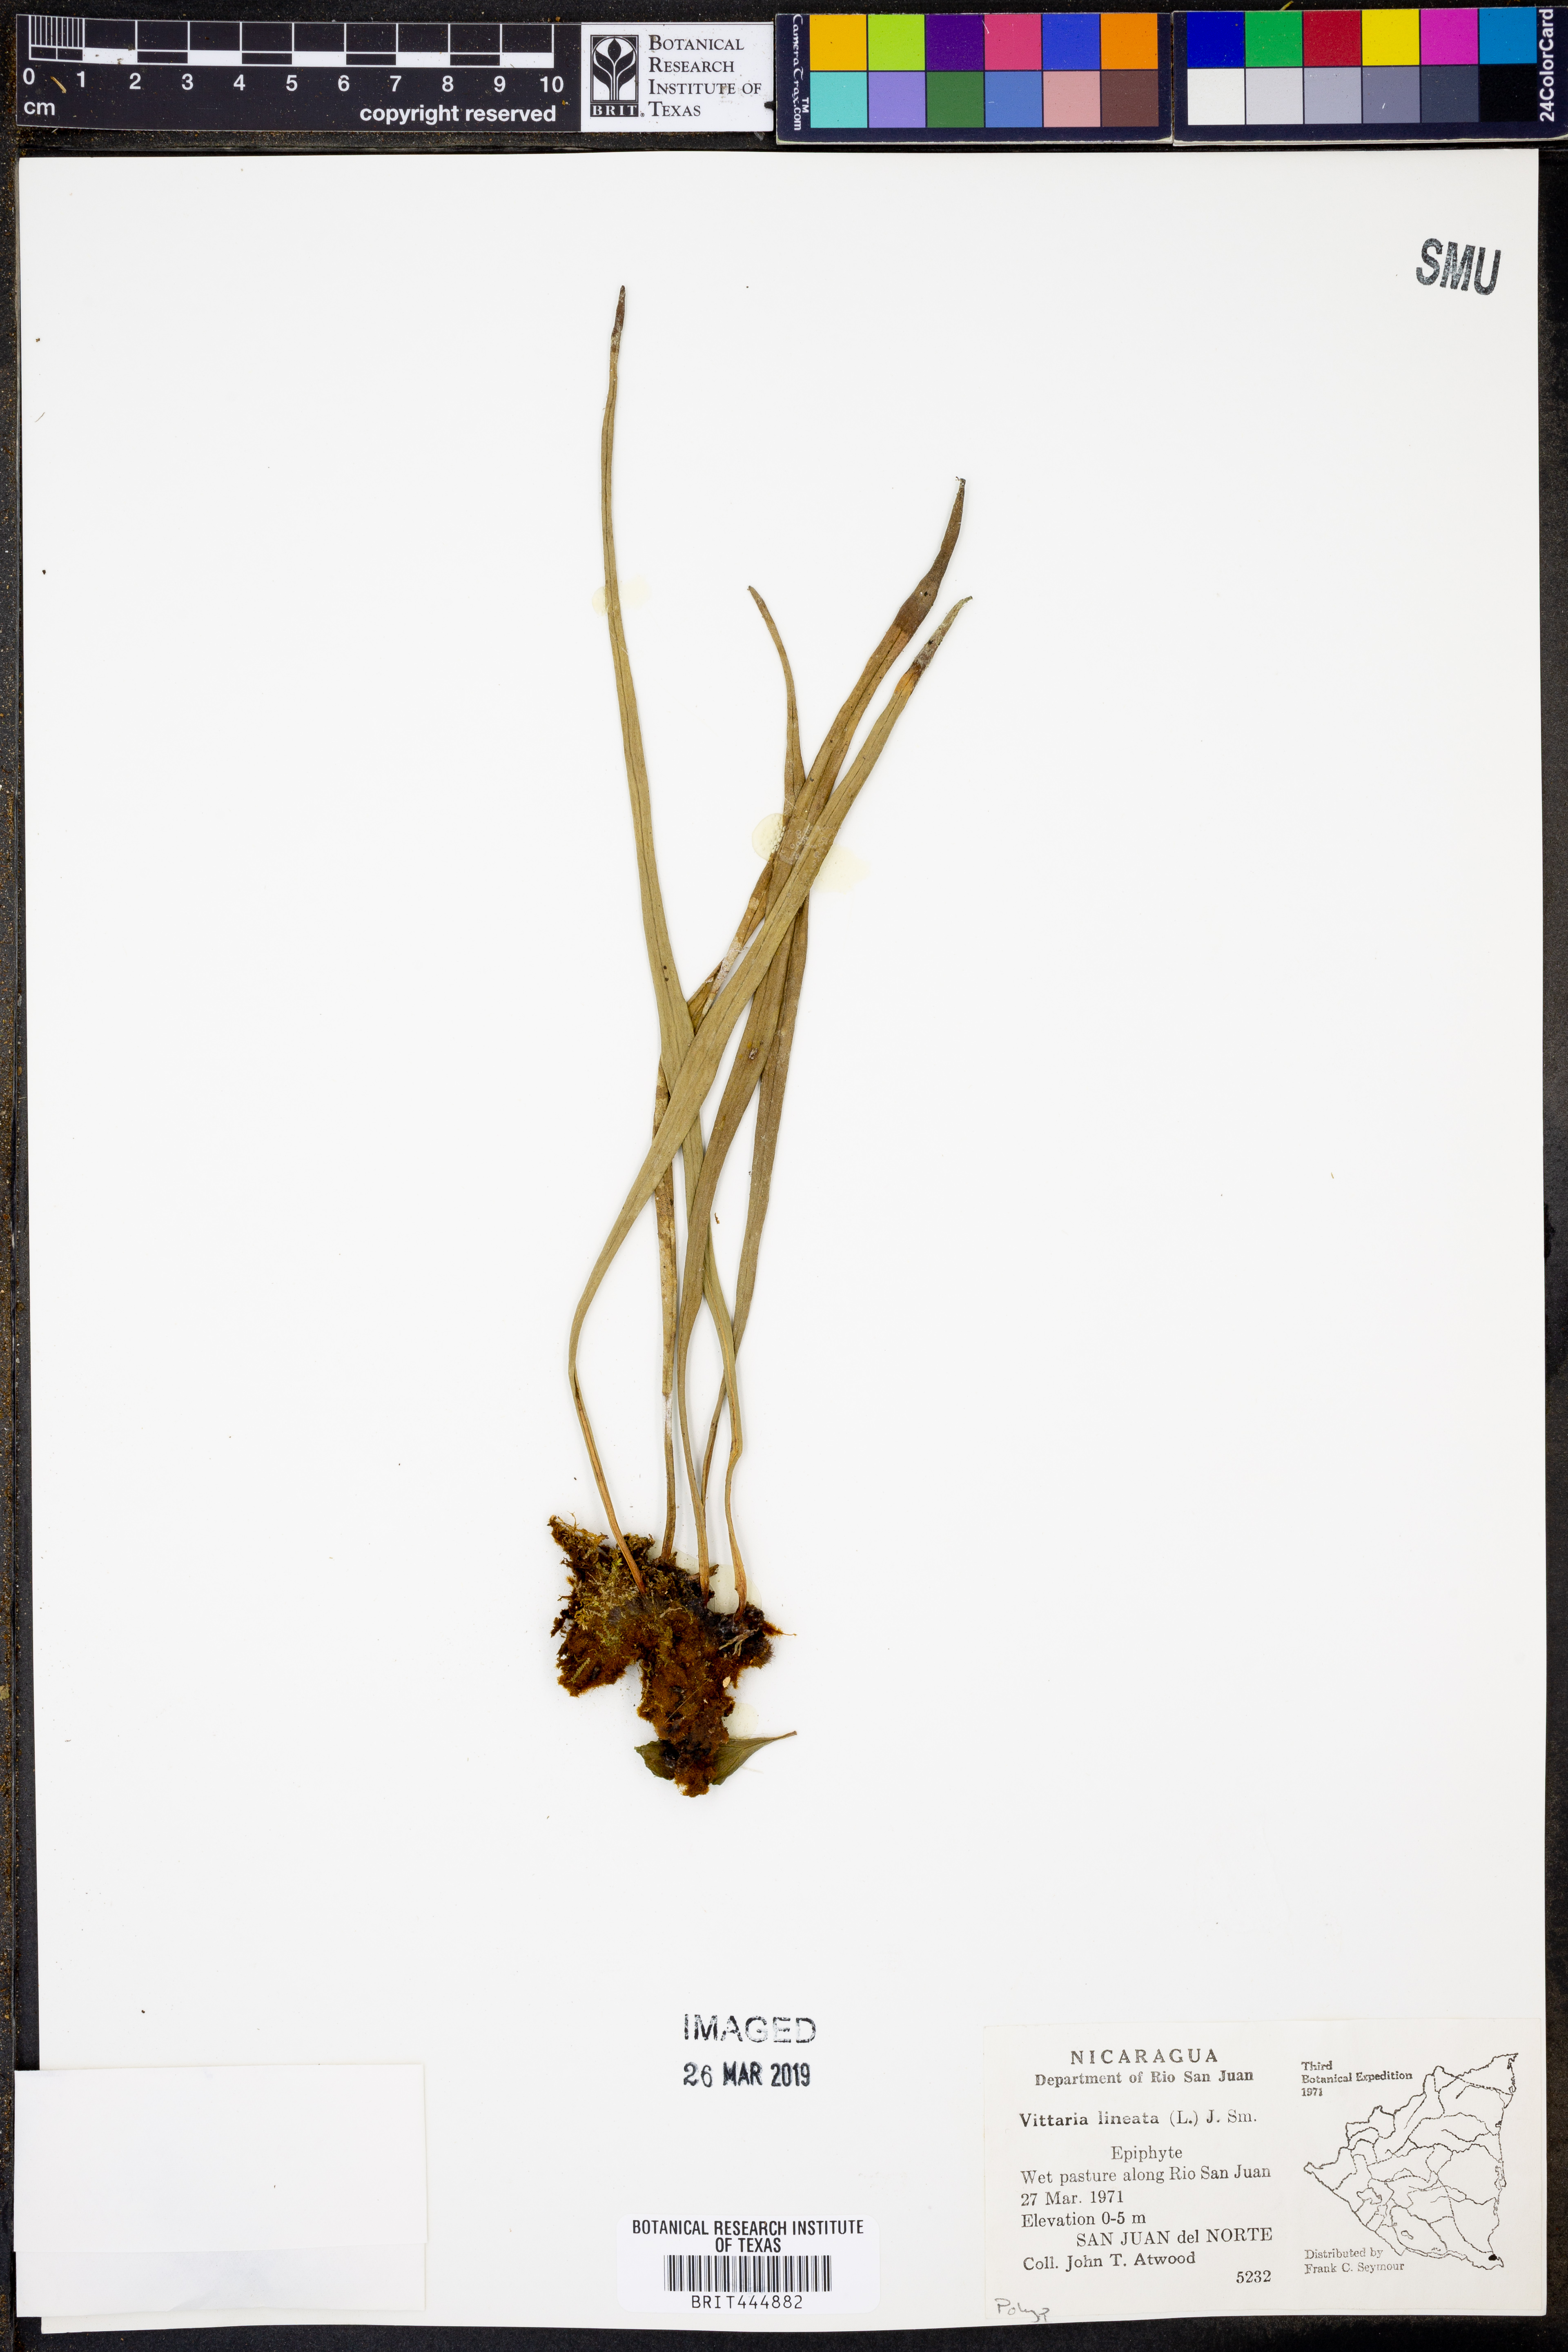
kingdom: Plantae
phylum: Tracheophyta
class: Polypodiopsida
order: Polypodiales
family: Pteridaceae
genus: Vittaria
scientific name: Vittaria lineata
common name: Shoestring fern
